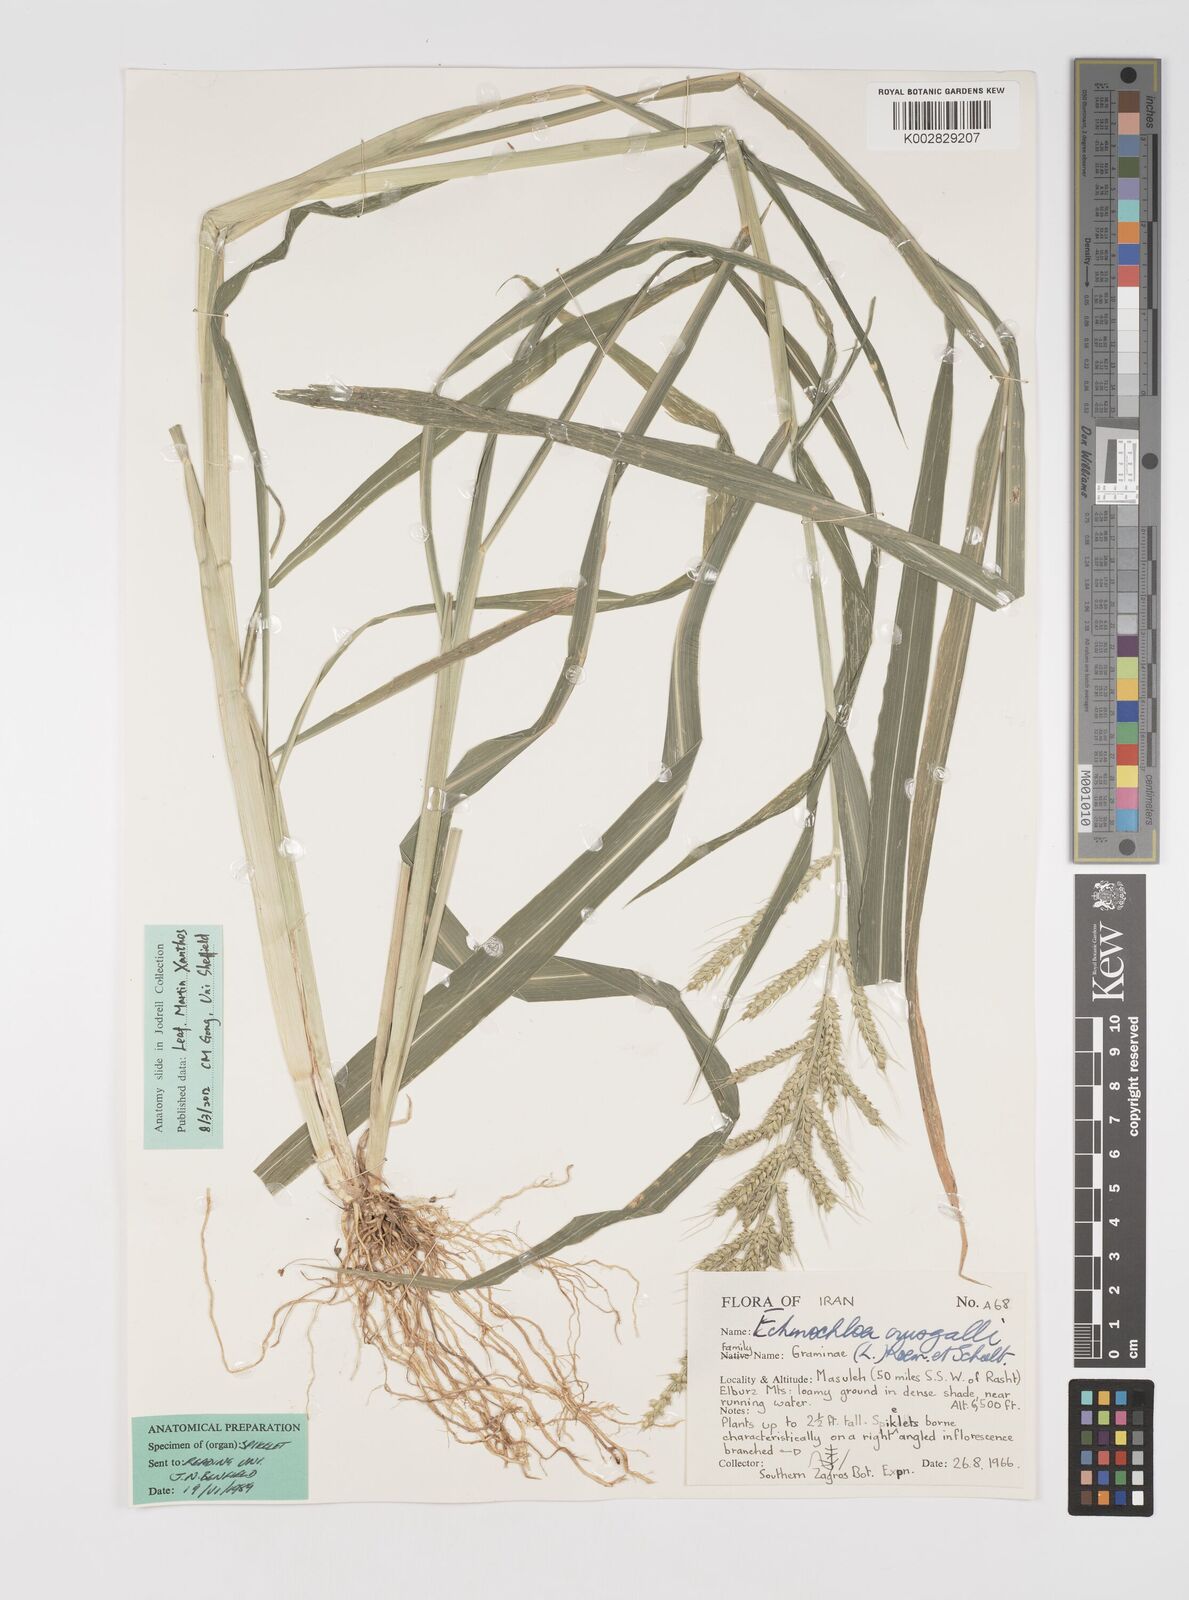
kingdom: Plantae
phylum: Tracheophyta
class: Liliopsida
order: Poales
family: Poaceae
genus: Echinochloa
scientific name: Echinochloa crus-galli
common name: Cockspur
